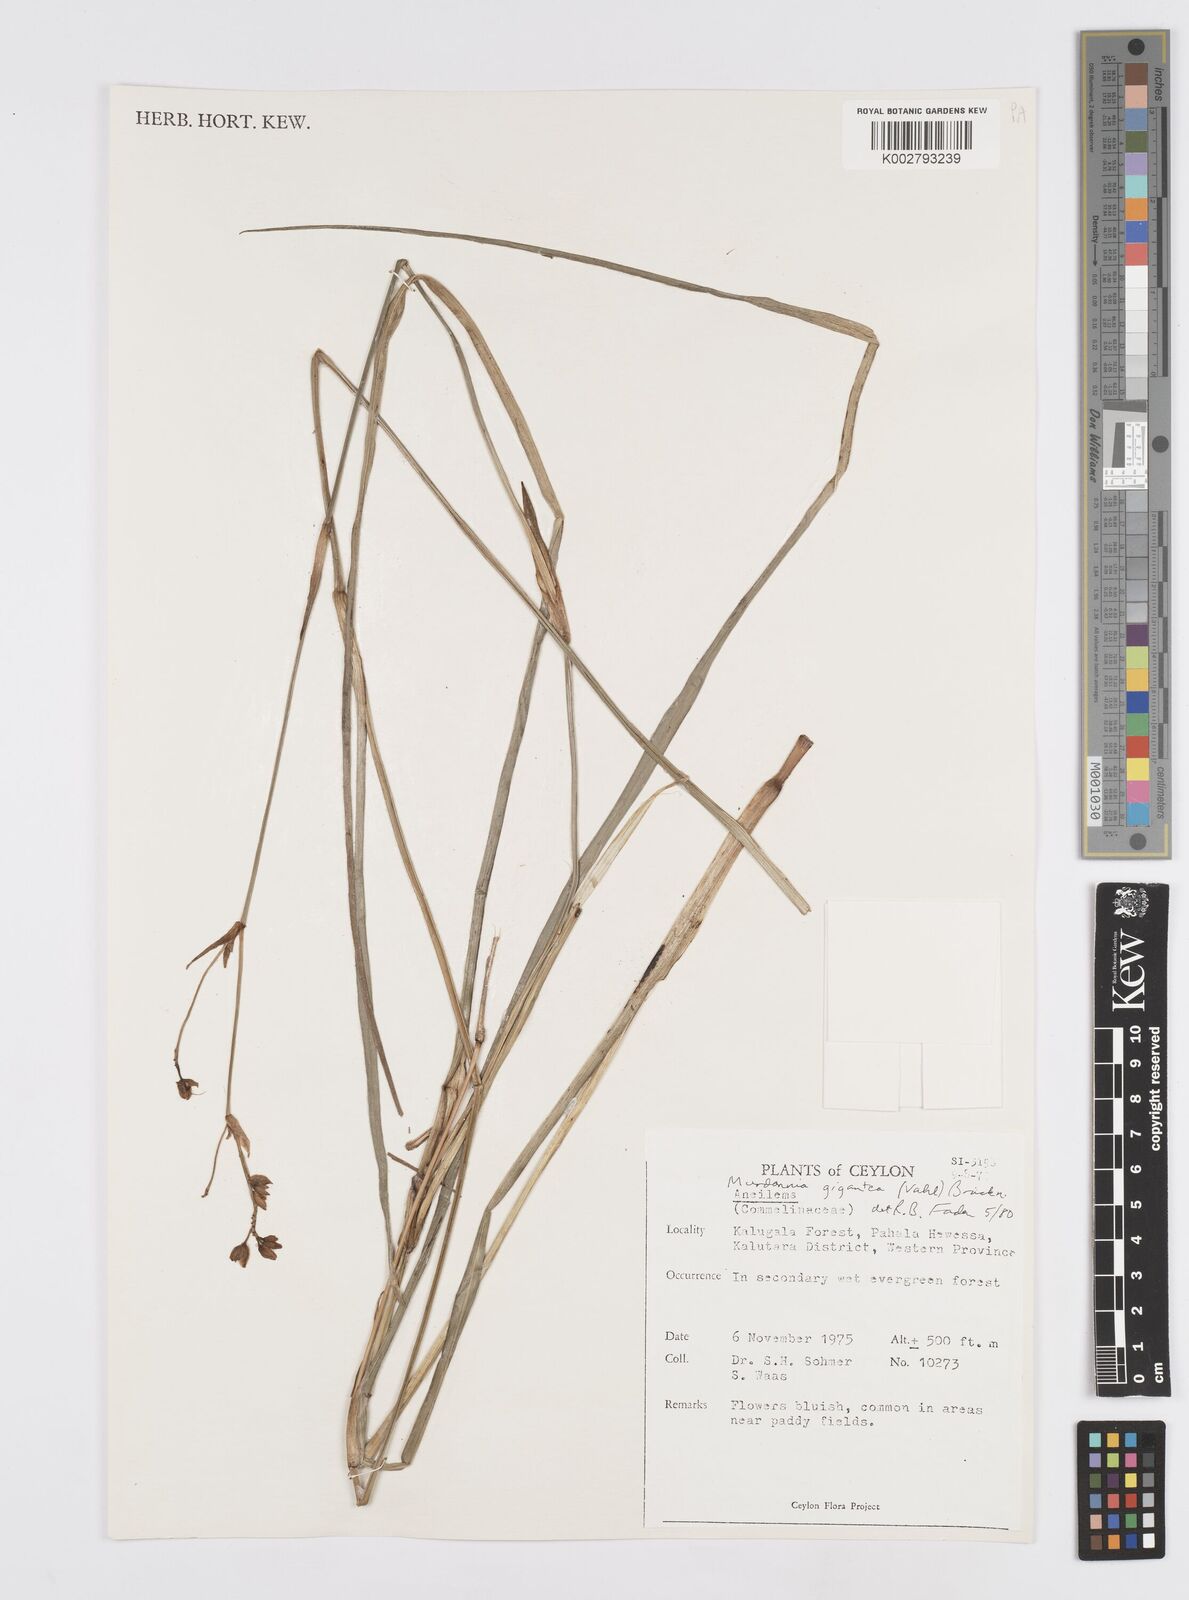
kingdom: Plantae
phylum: Tracheophyta
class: Liliopsida
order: Commelinales
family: Commelinaceae
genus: Murdannia
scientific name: Murdannia gigantea
